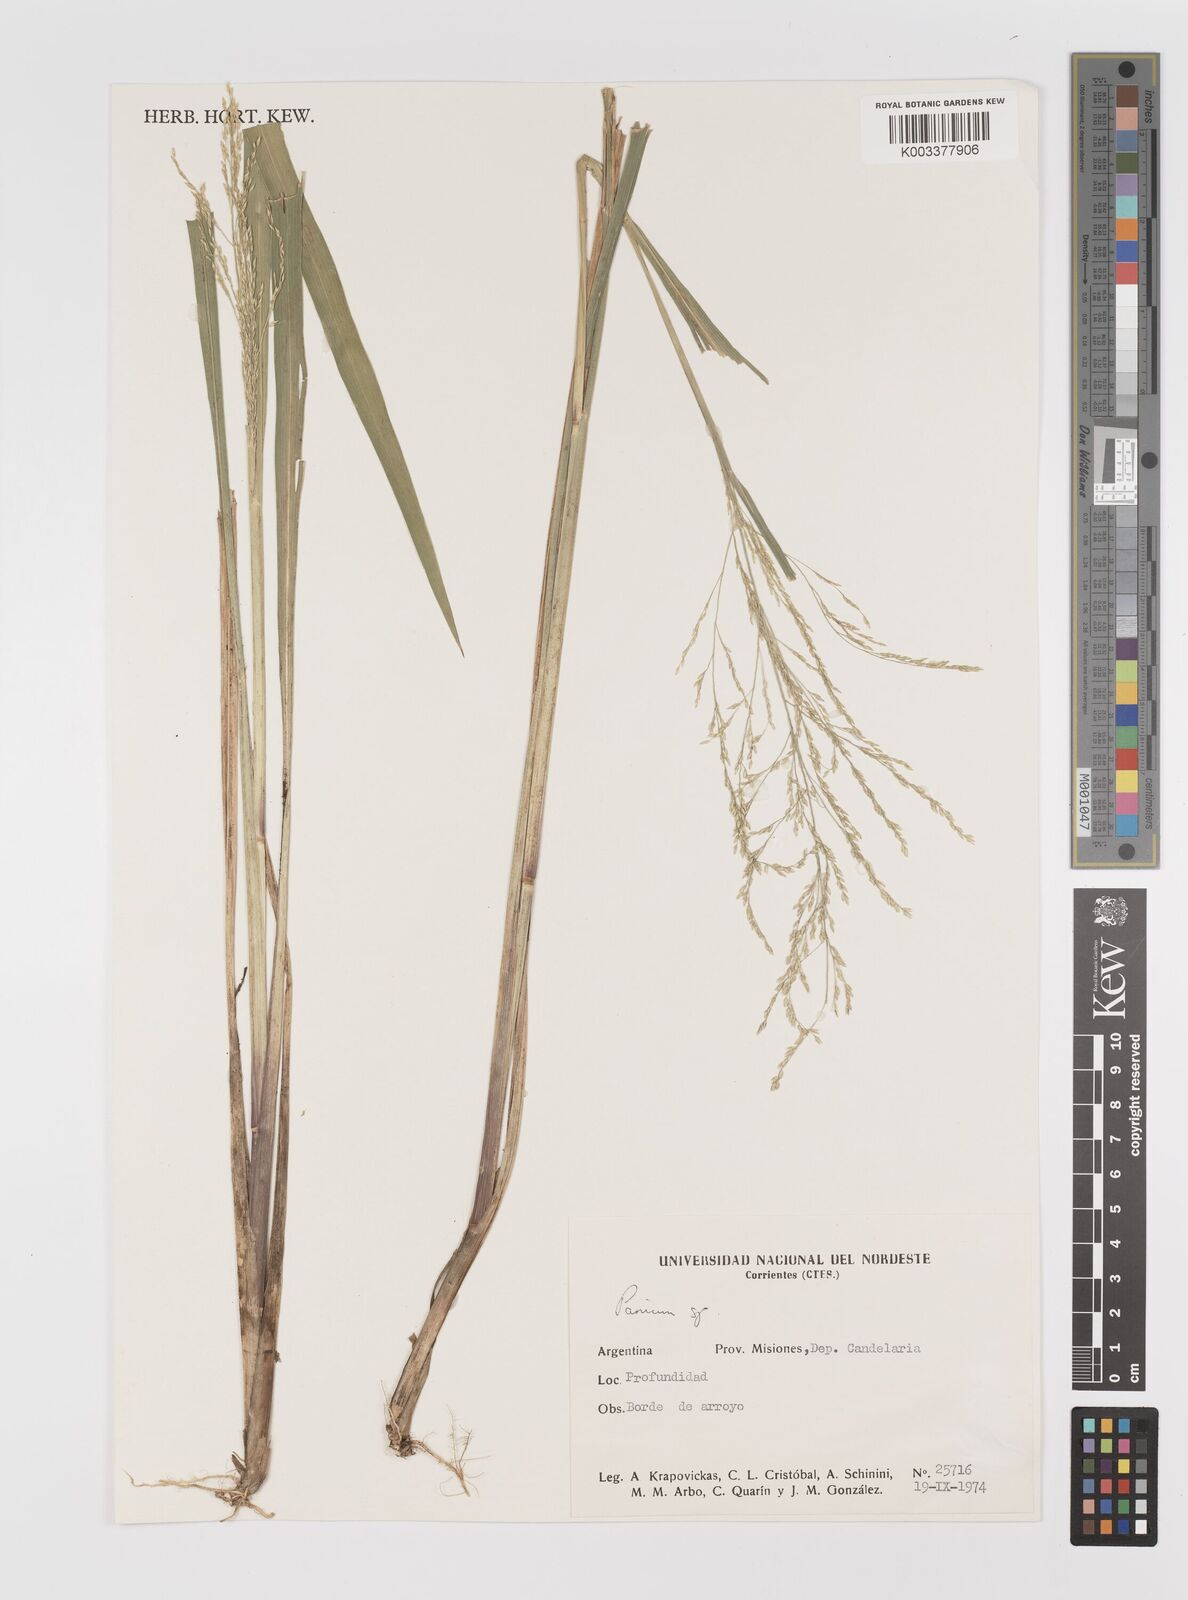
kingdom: Plantae
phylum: Tracheophyta
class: Liliopsida
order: Poales
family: Poaceae
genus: Panicum
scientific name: Panicum
